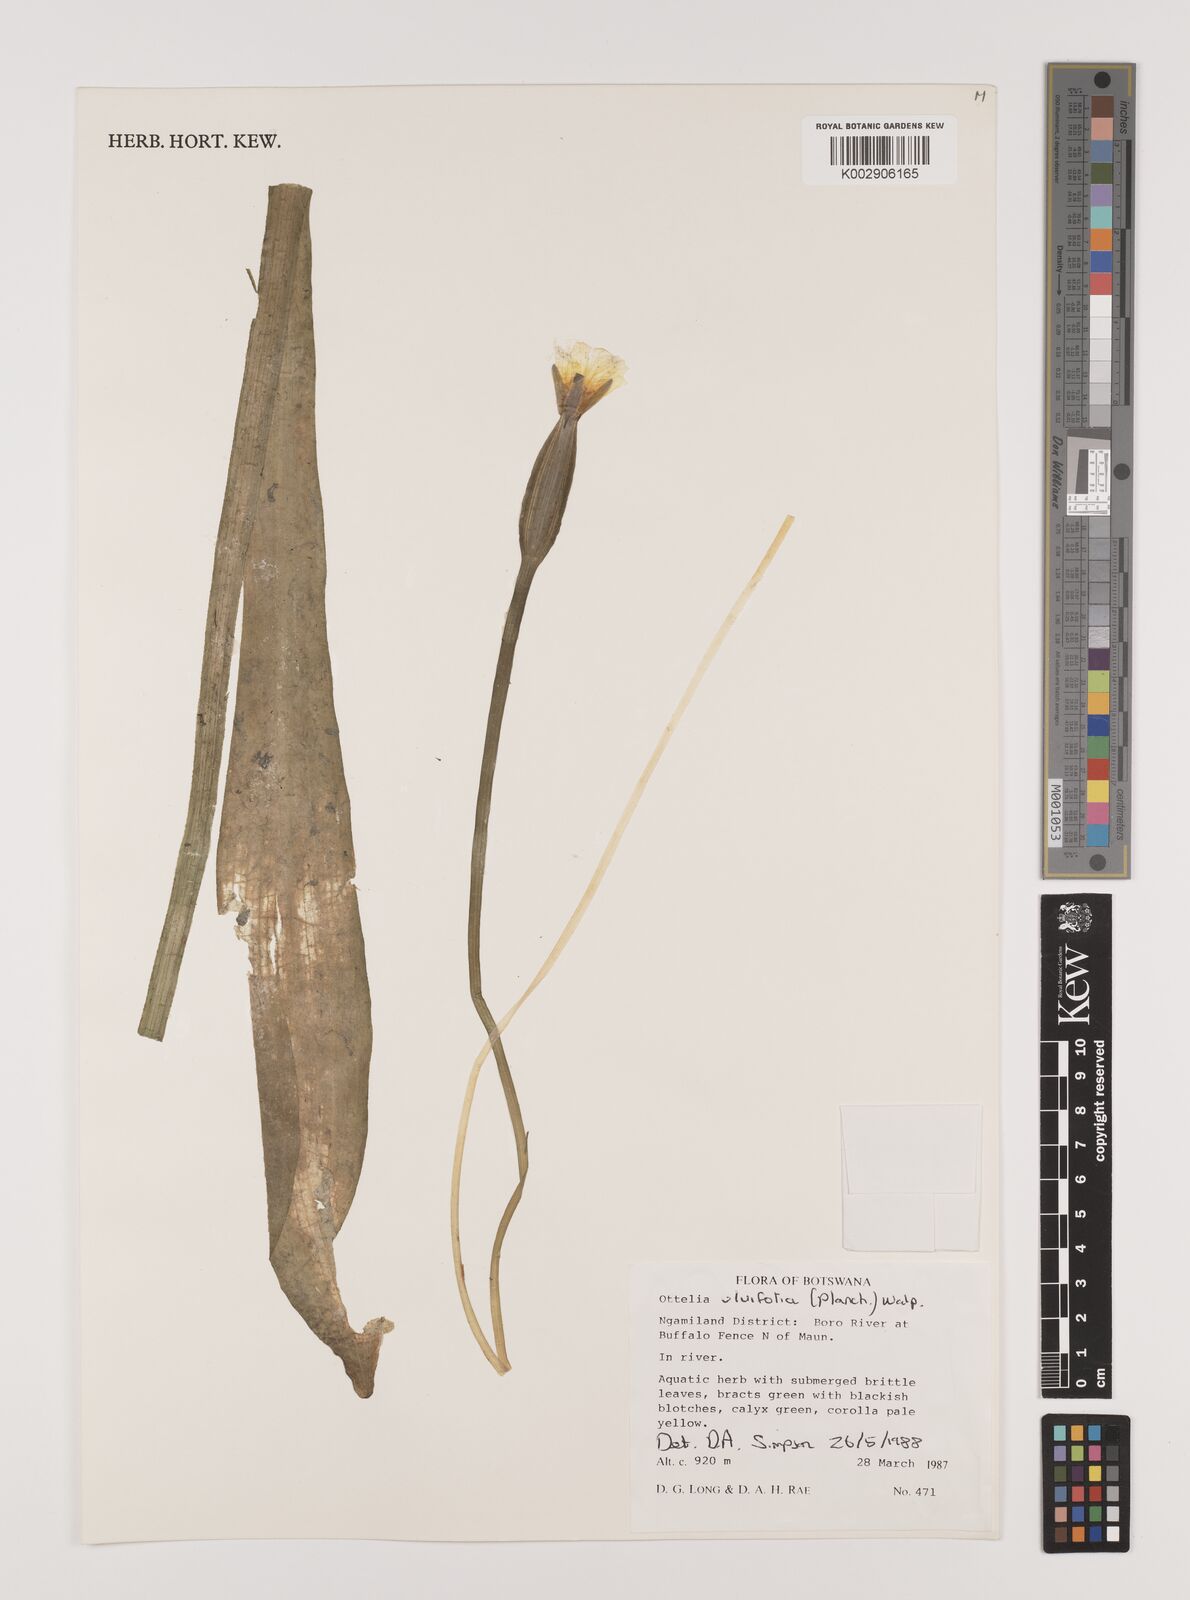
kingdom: Plantae
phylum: Tracheophyta
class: Liliopsida
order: Alismatales
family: Hydrocharitaceae
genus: Ottelia
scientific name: Ottelia ulvifolia
